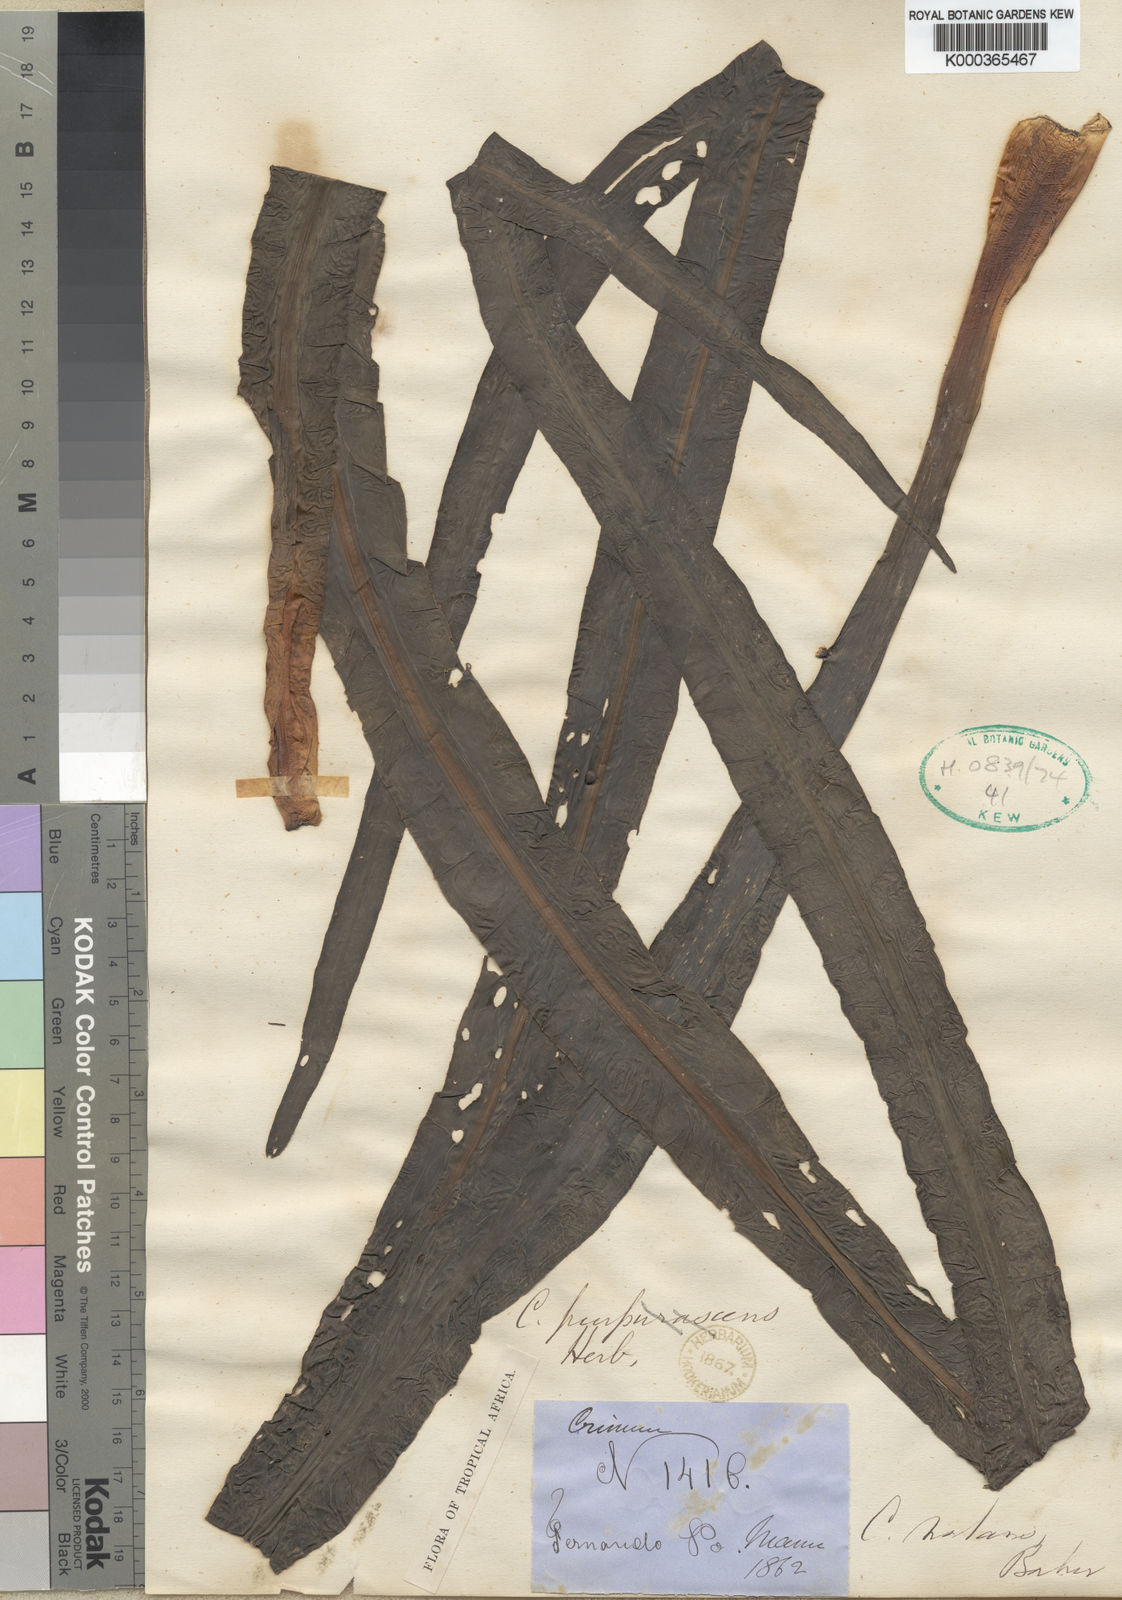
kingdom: Plantae
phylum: Tracheophyta
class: Liliopsida
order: Asparagales
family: Amaryllidaceae
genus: Crinum
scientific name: Crinum natans
